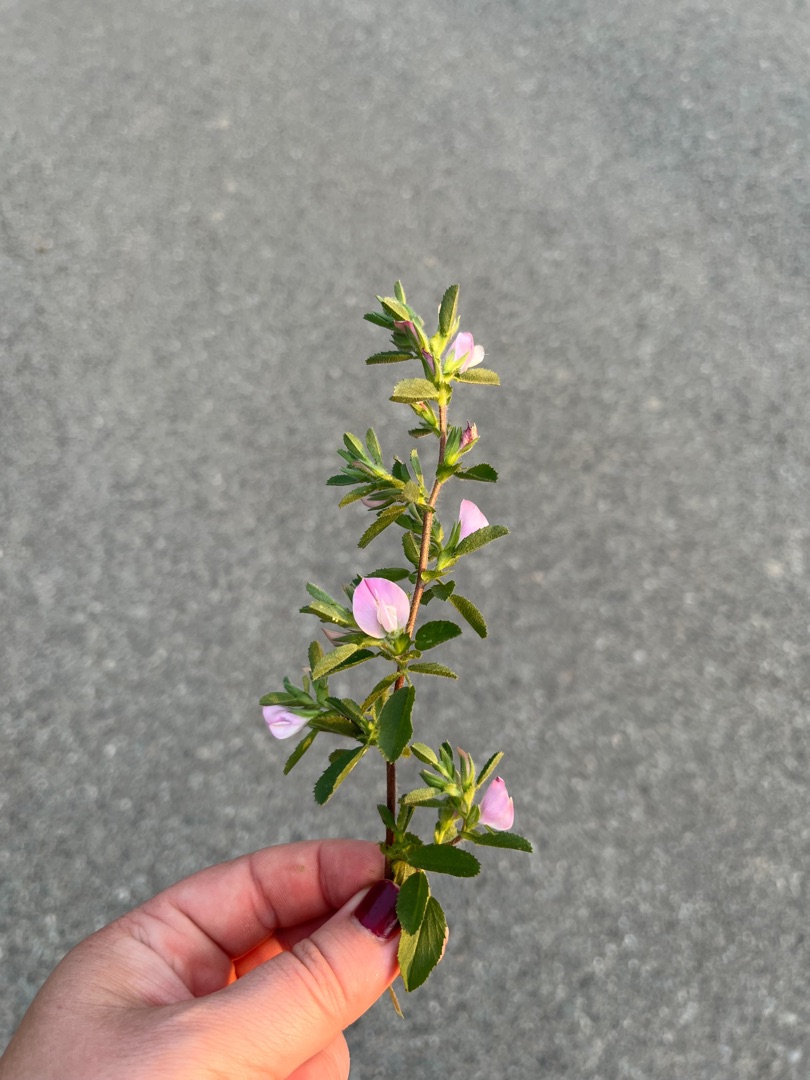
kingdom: Plantae
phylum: Tracheophyta
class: Magnoliopsida
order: Fabales
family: Fabaceae
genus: Ononis
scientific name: Ononis spinosa
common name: Mark-krageklo
